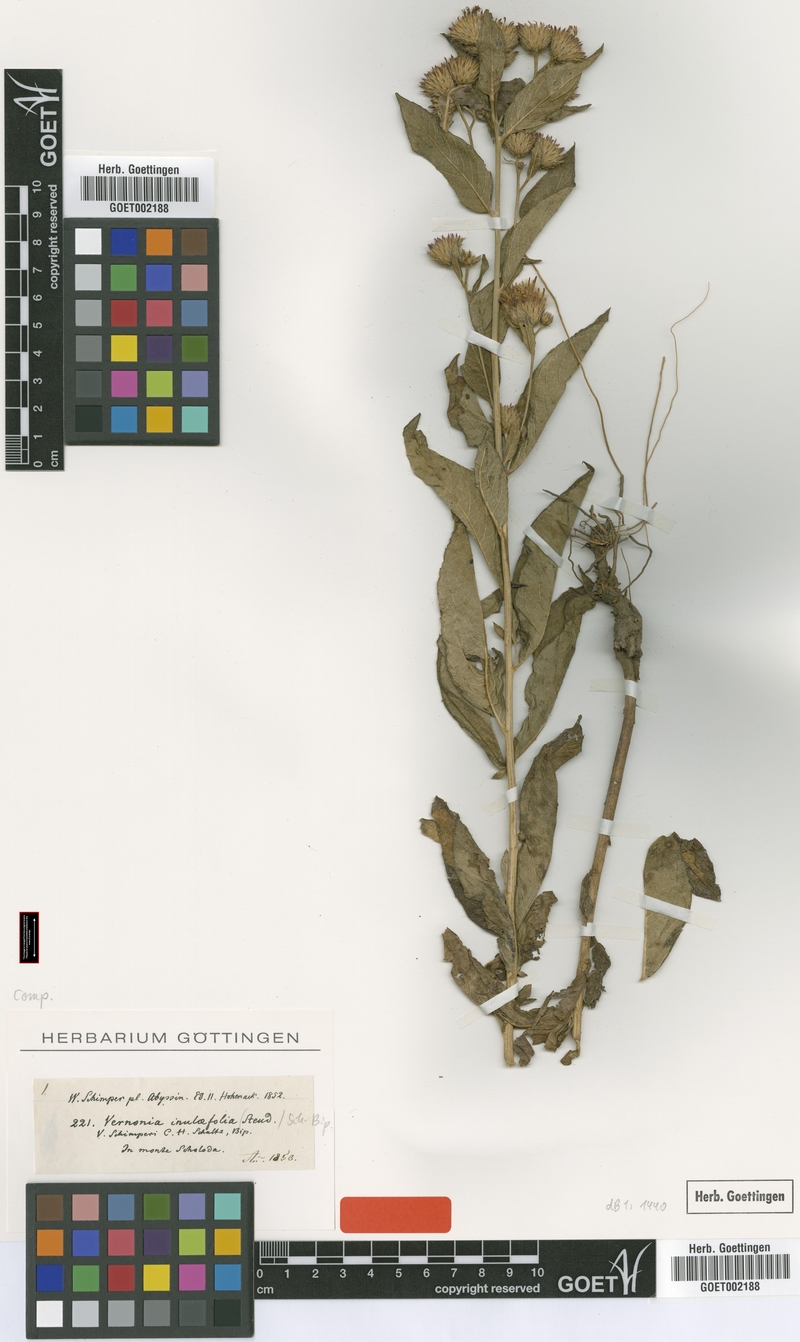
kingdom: Plantae
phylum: Tracheophyta
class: Magnoliopsida
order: Asterales
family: Asteraceae
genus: Nothovernonia
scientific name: Nothovernonia purpurea
